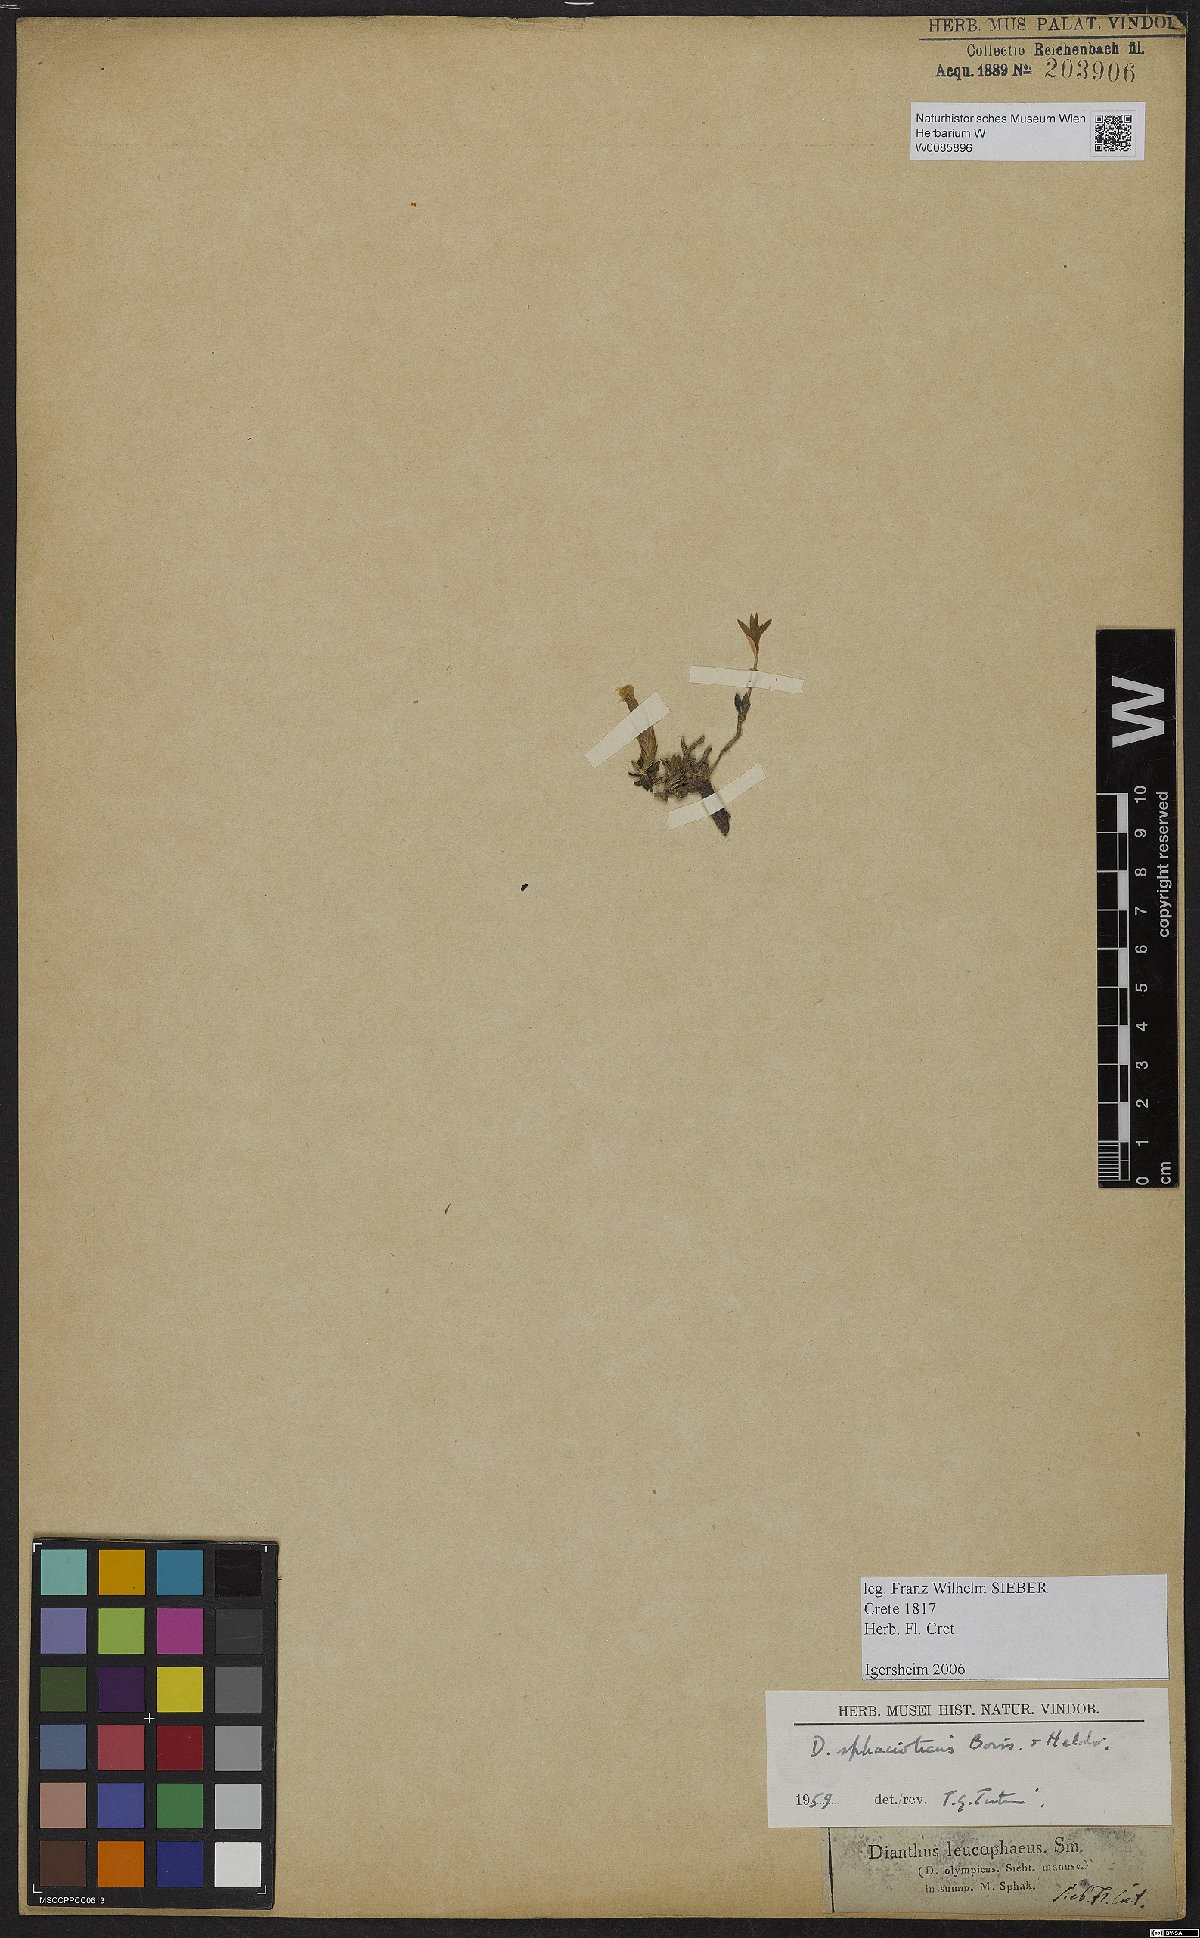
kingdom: Plantae
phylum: Tracheophyta
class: Magnoliopsida
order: Caryophyllales
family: Caryophyllaceae
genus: Dianthus
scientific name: Dianthus sphacioticus
